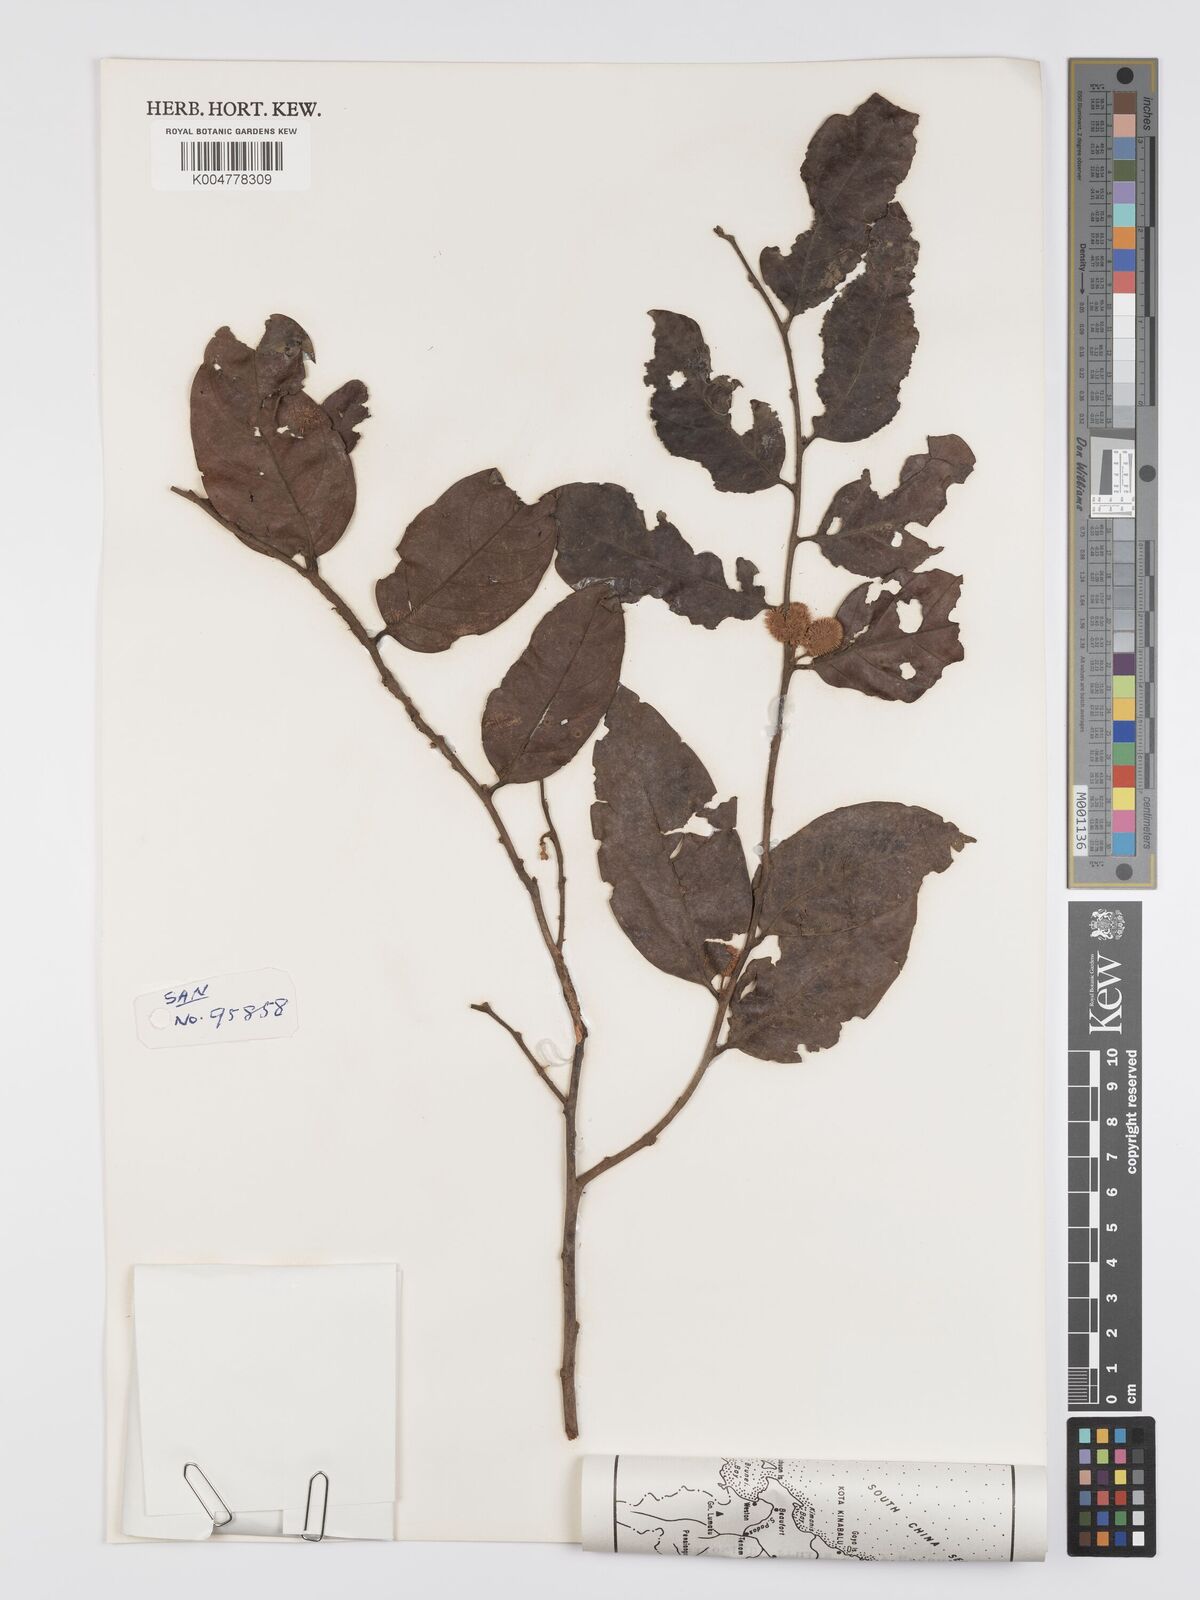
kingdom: Plantae
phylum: Tracheophyta
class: Magnoliopsida
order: Malpighiales
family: Peraceae
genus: Chaetocarpus
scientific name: Chaetocarpus castanocarpus
